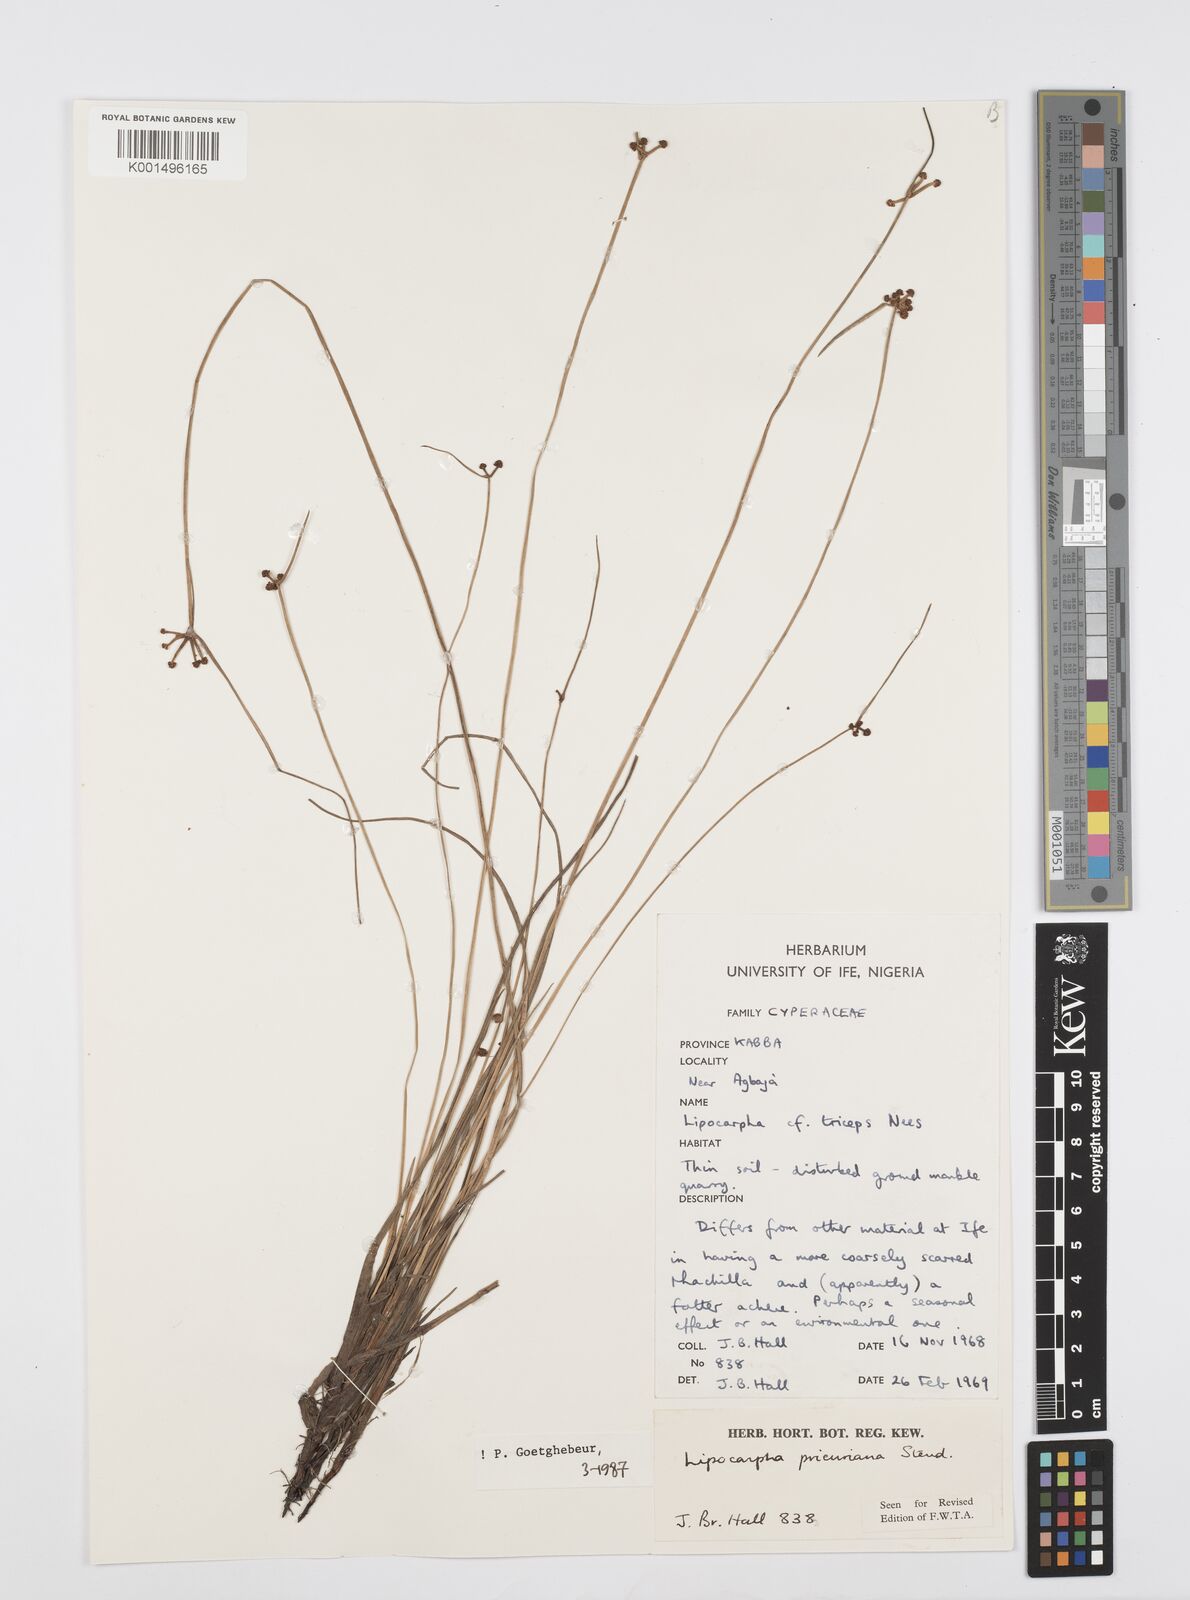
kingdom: Plantae
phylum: Tracheophyta
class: Liliopsida
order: Poales
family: Cyperaceae
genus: Cyperus
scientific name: Cyperus prieurianus
